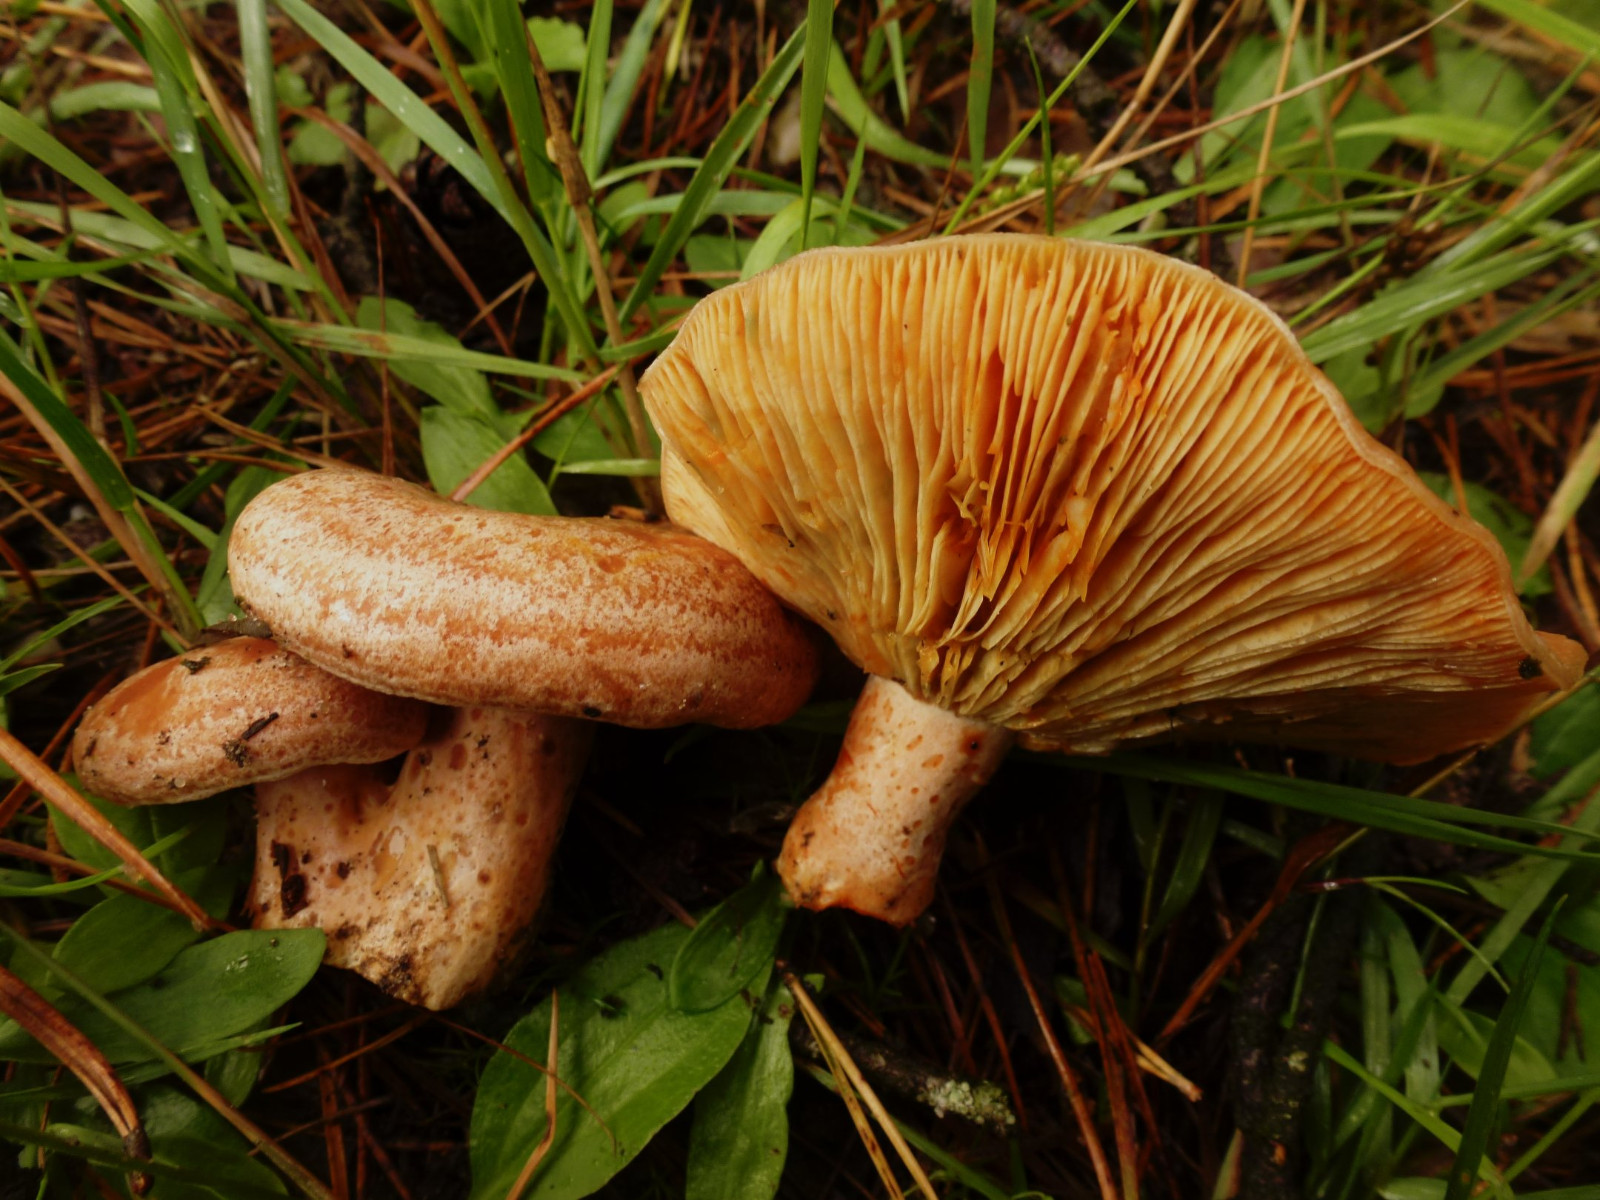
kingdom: Fungi
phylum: Basidiomycota
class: Agaricomycetes
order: Russulales
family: Russulaceae
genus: Lactarius
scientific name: Lactarius deliciosus
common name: velsmagende mælkehat
